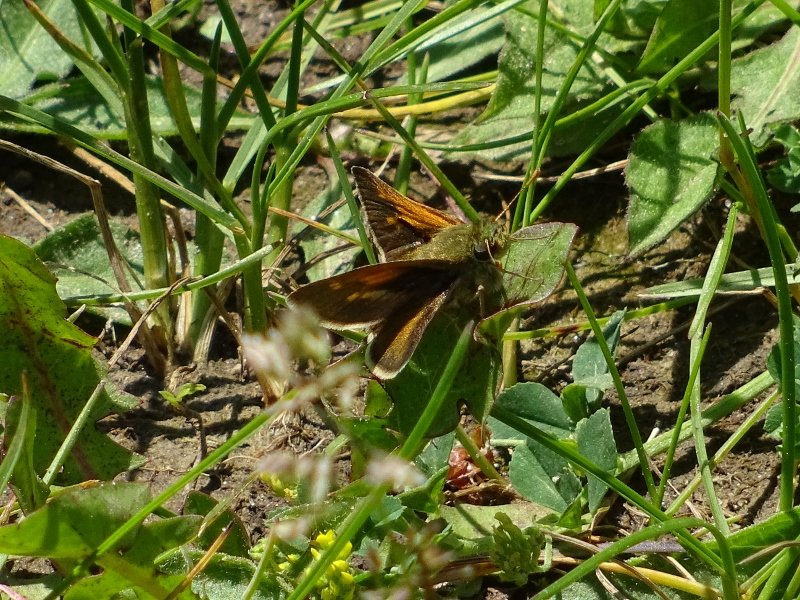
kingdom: Animalia
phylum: Arthropoda
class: Insecta
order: Lepidoptera
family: Hesperiidae
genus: Polites
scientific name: Polites themistocles
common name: Tawny-edged Skipper
